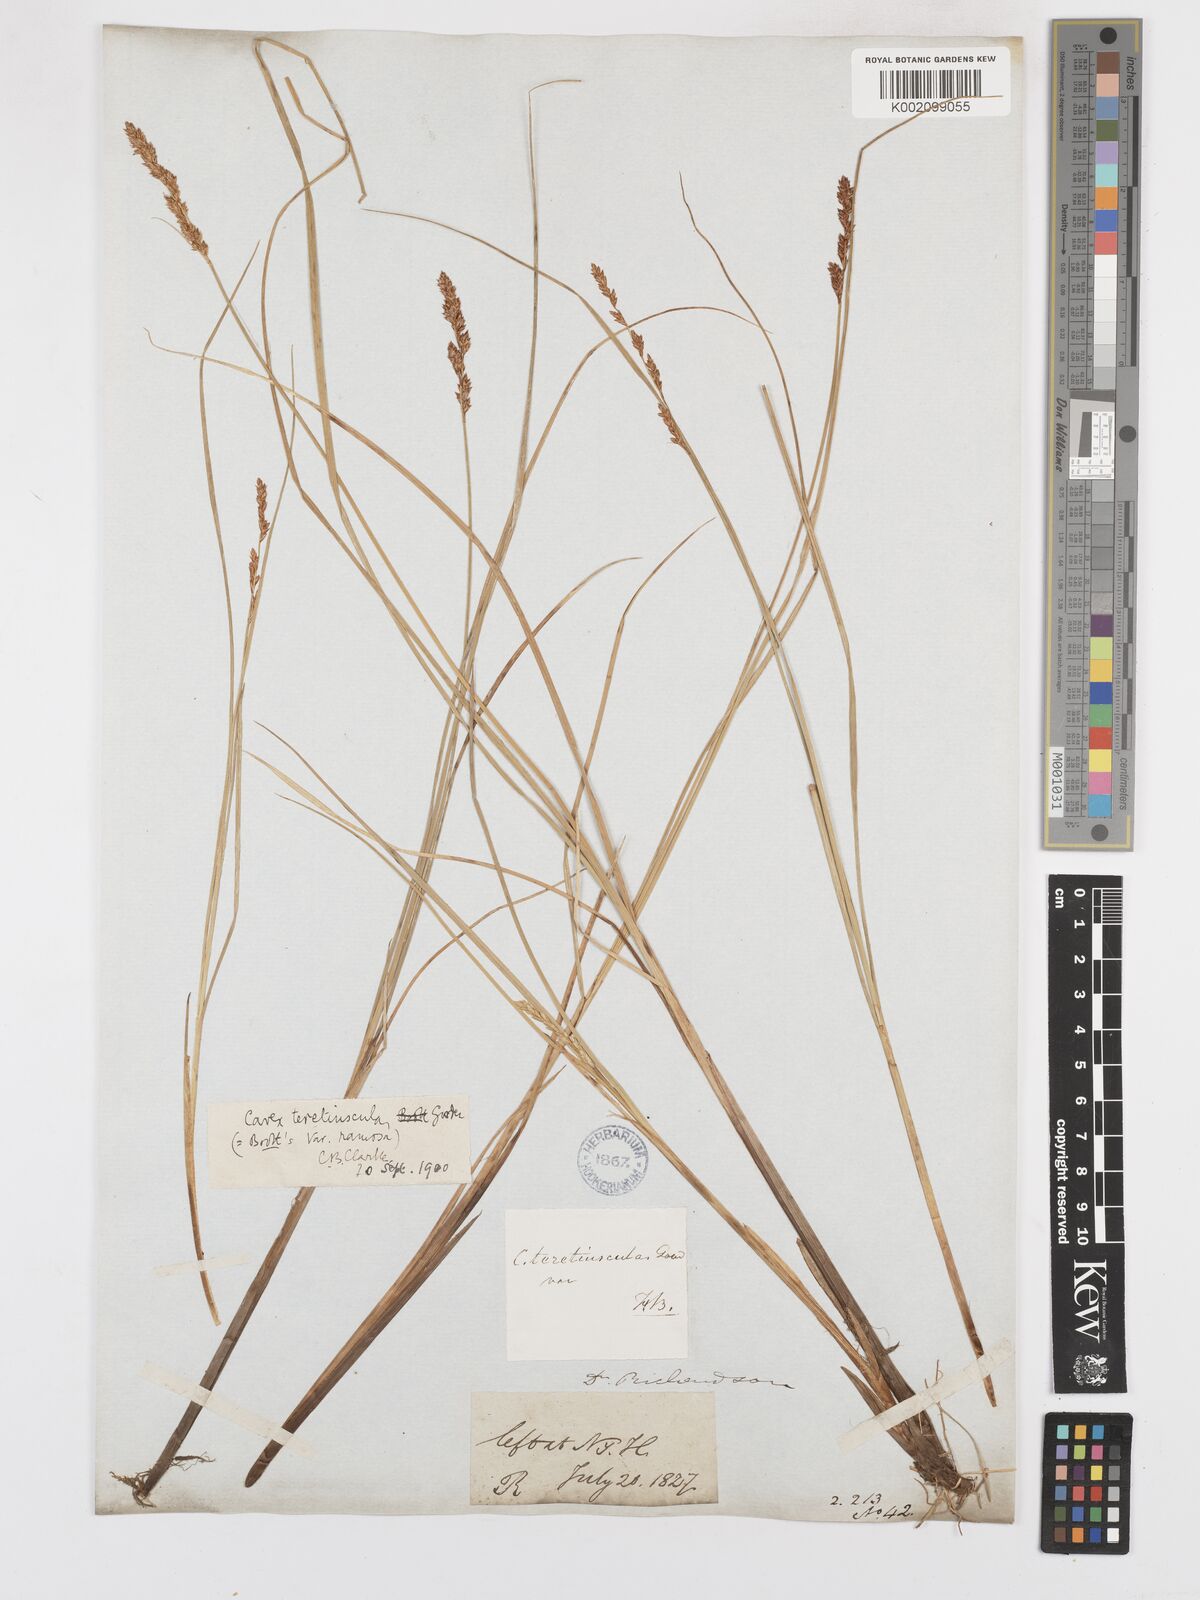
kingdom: Plantae
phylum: Tracheophyta
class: Liliopsida
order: Poales
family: Cyperaceae
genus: Carex
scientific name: Carex diandra
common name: Lesser tussock-sedge
